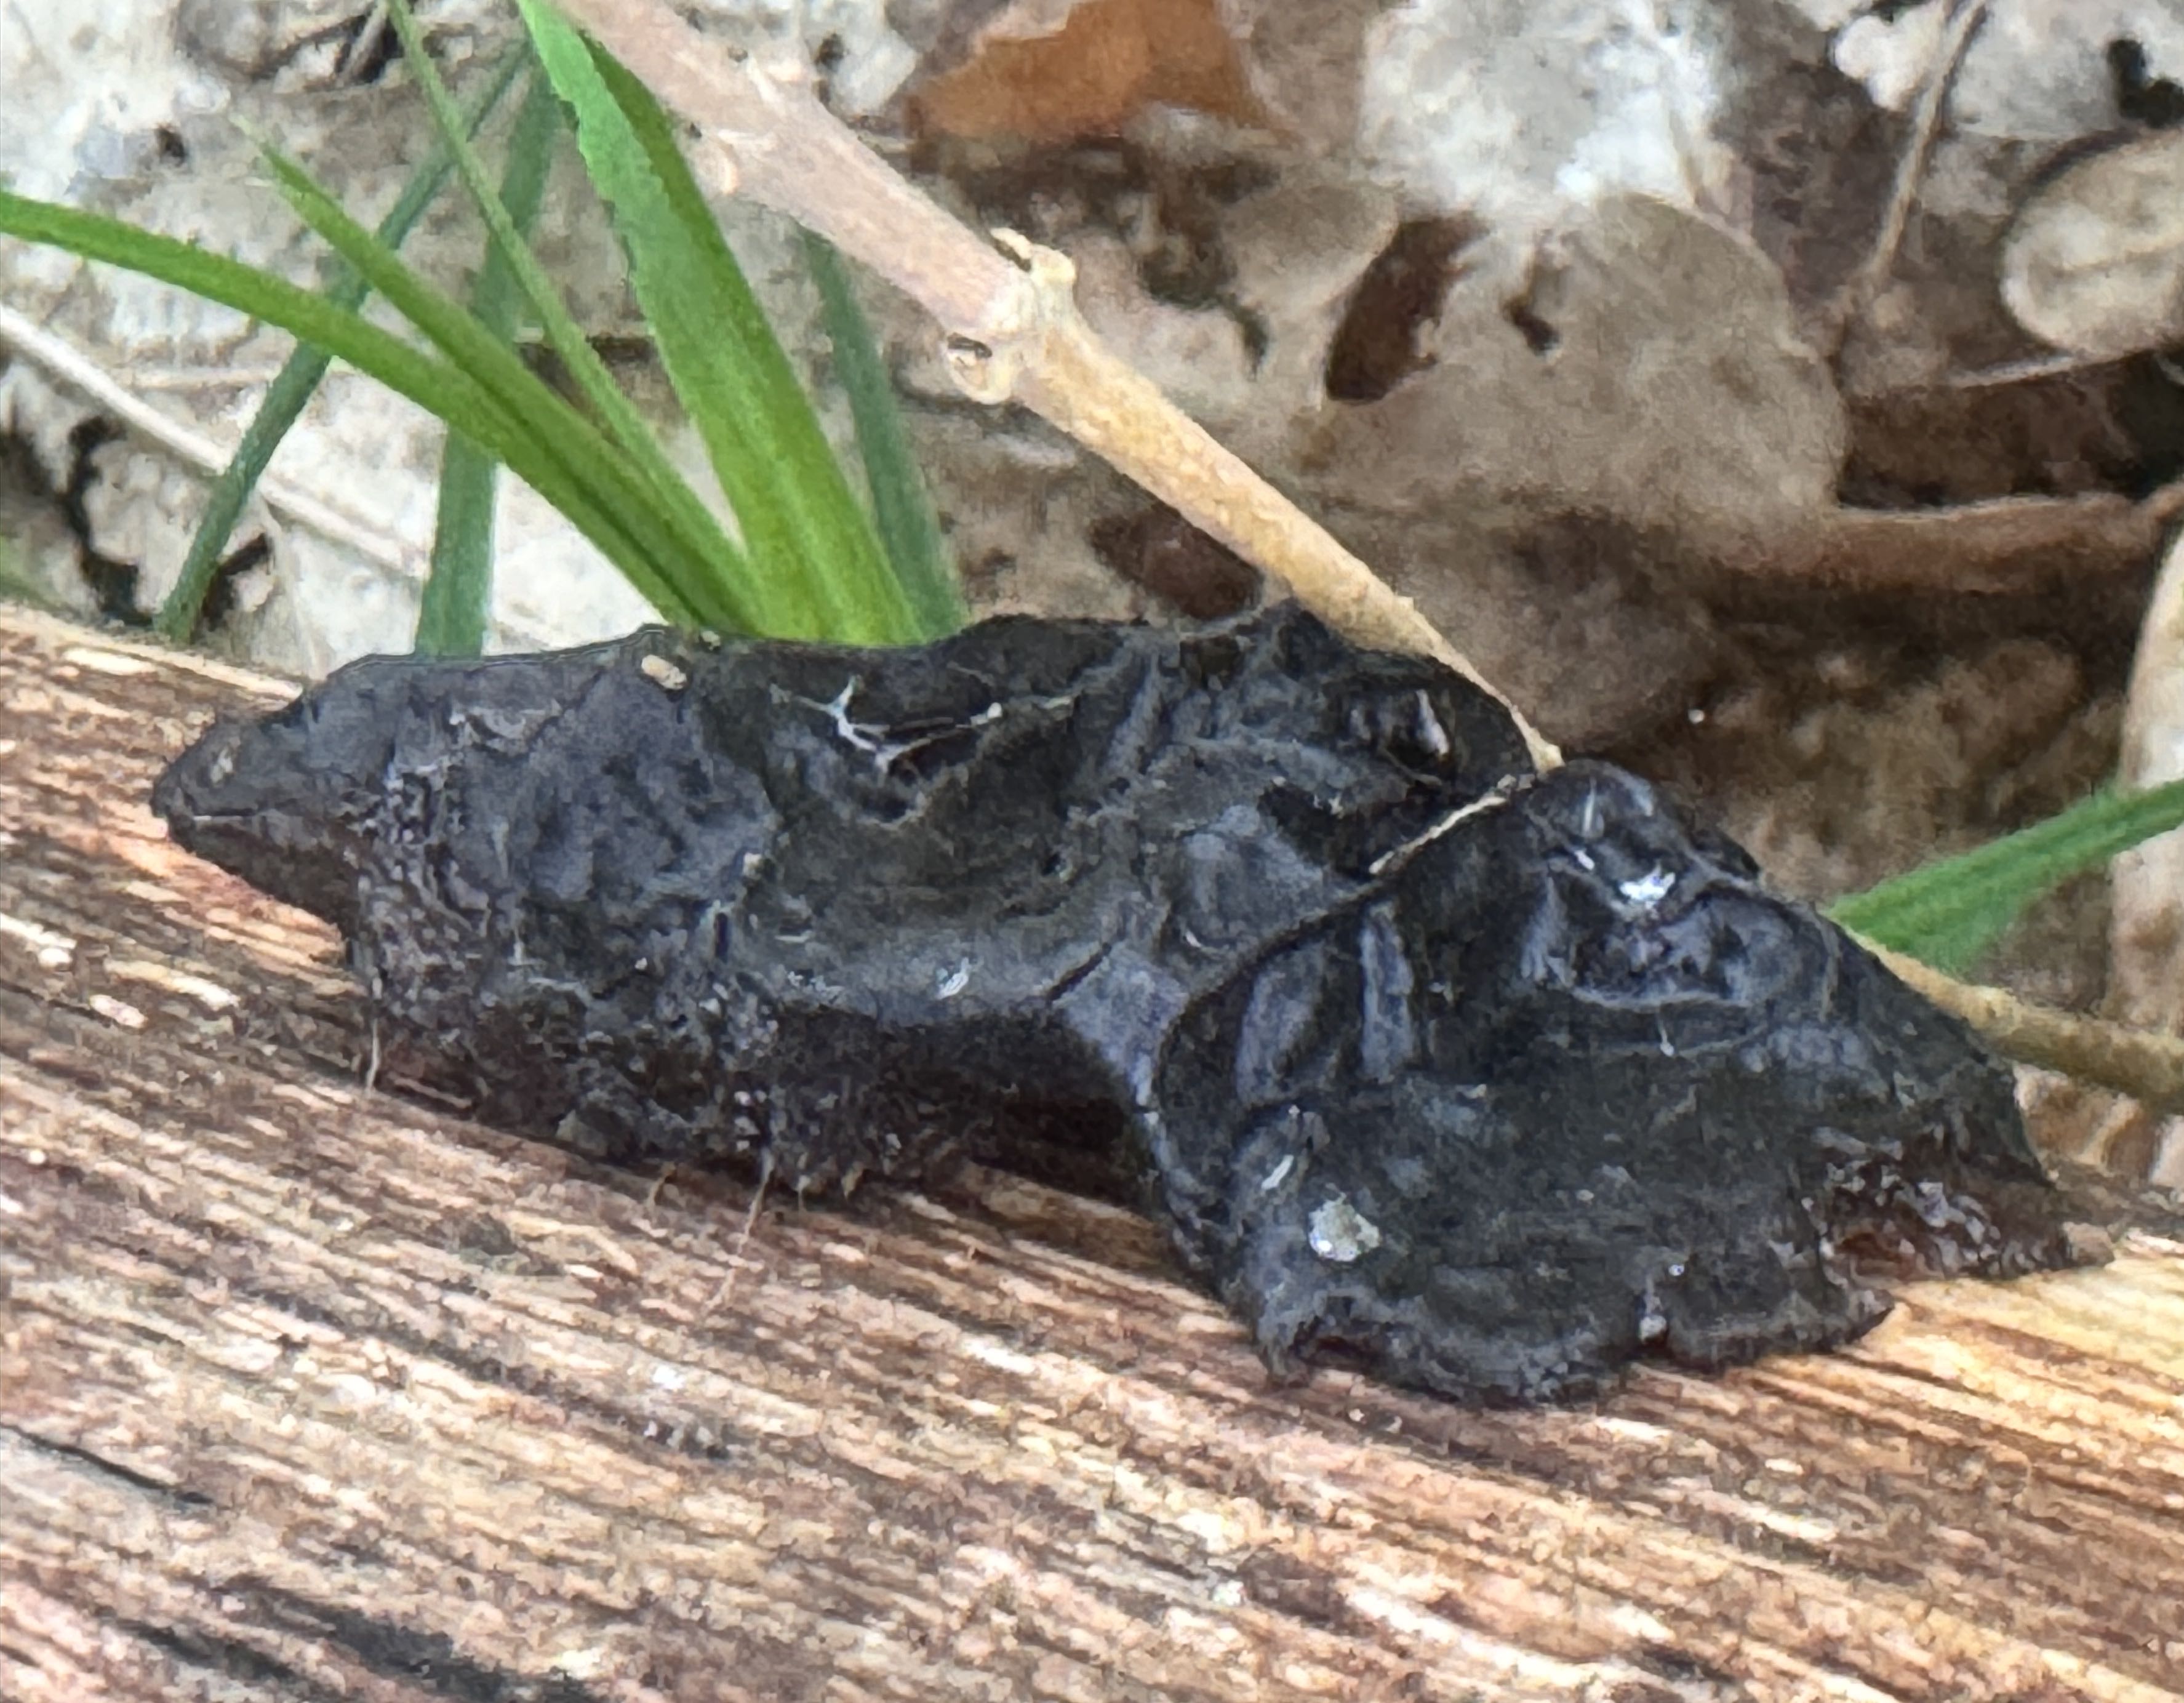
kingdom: Fungi
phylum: Basidiomycota
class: Agaricomycetes
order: Auriculariales
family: Auriculariaceae
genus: Exidia
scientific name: Exidia glandulosa
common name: ege-bævretop
